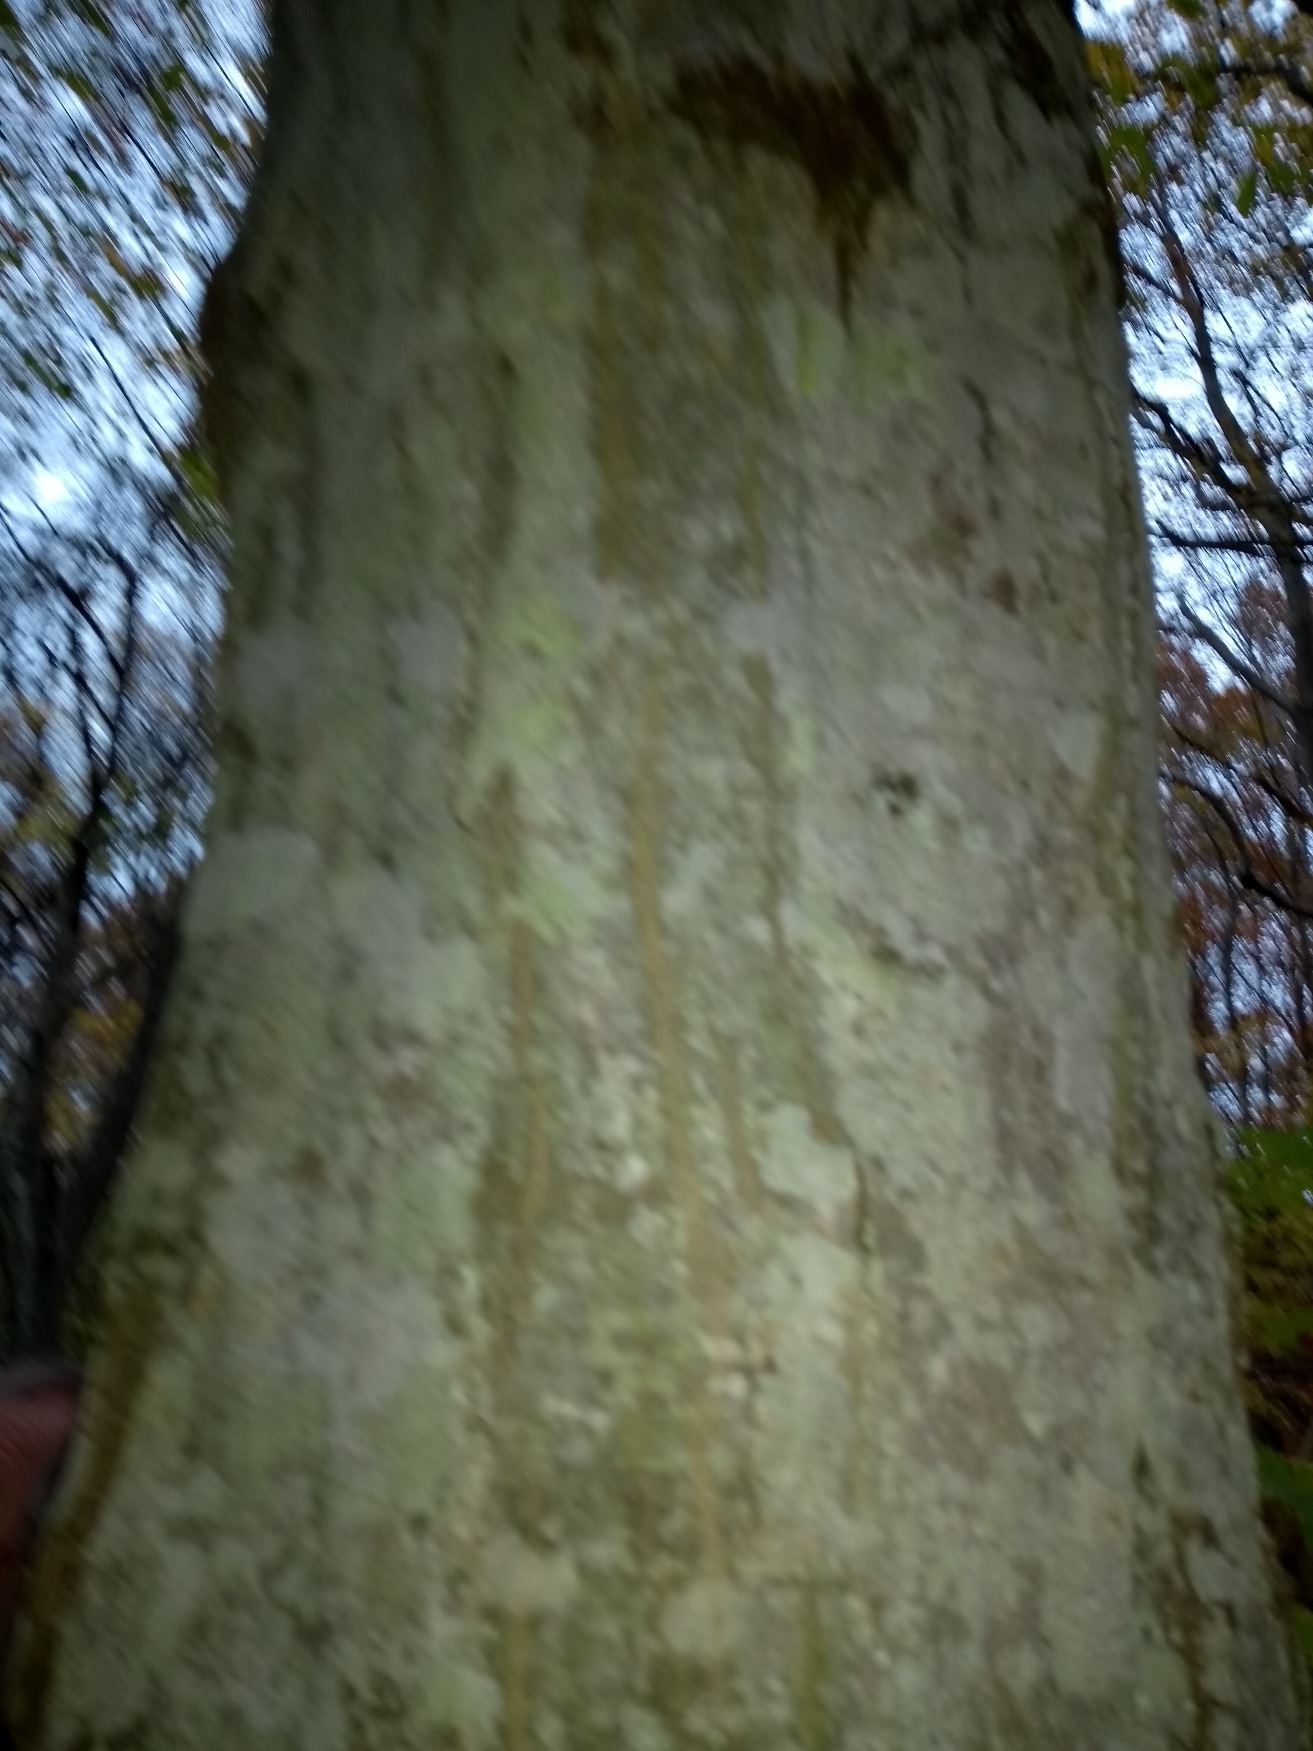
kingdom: Plantae
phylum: Tracheophyta
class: Magnoliopsida
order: Fagales
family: Betulaceae
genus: Carpinus
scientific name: Carpinus betulus
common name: Avnbøg
